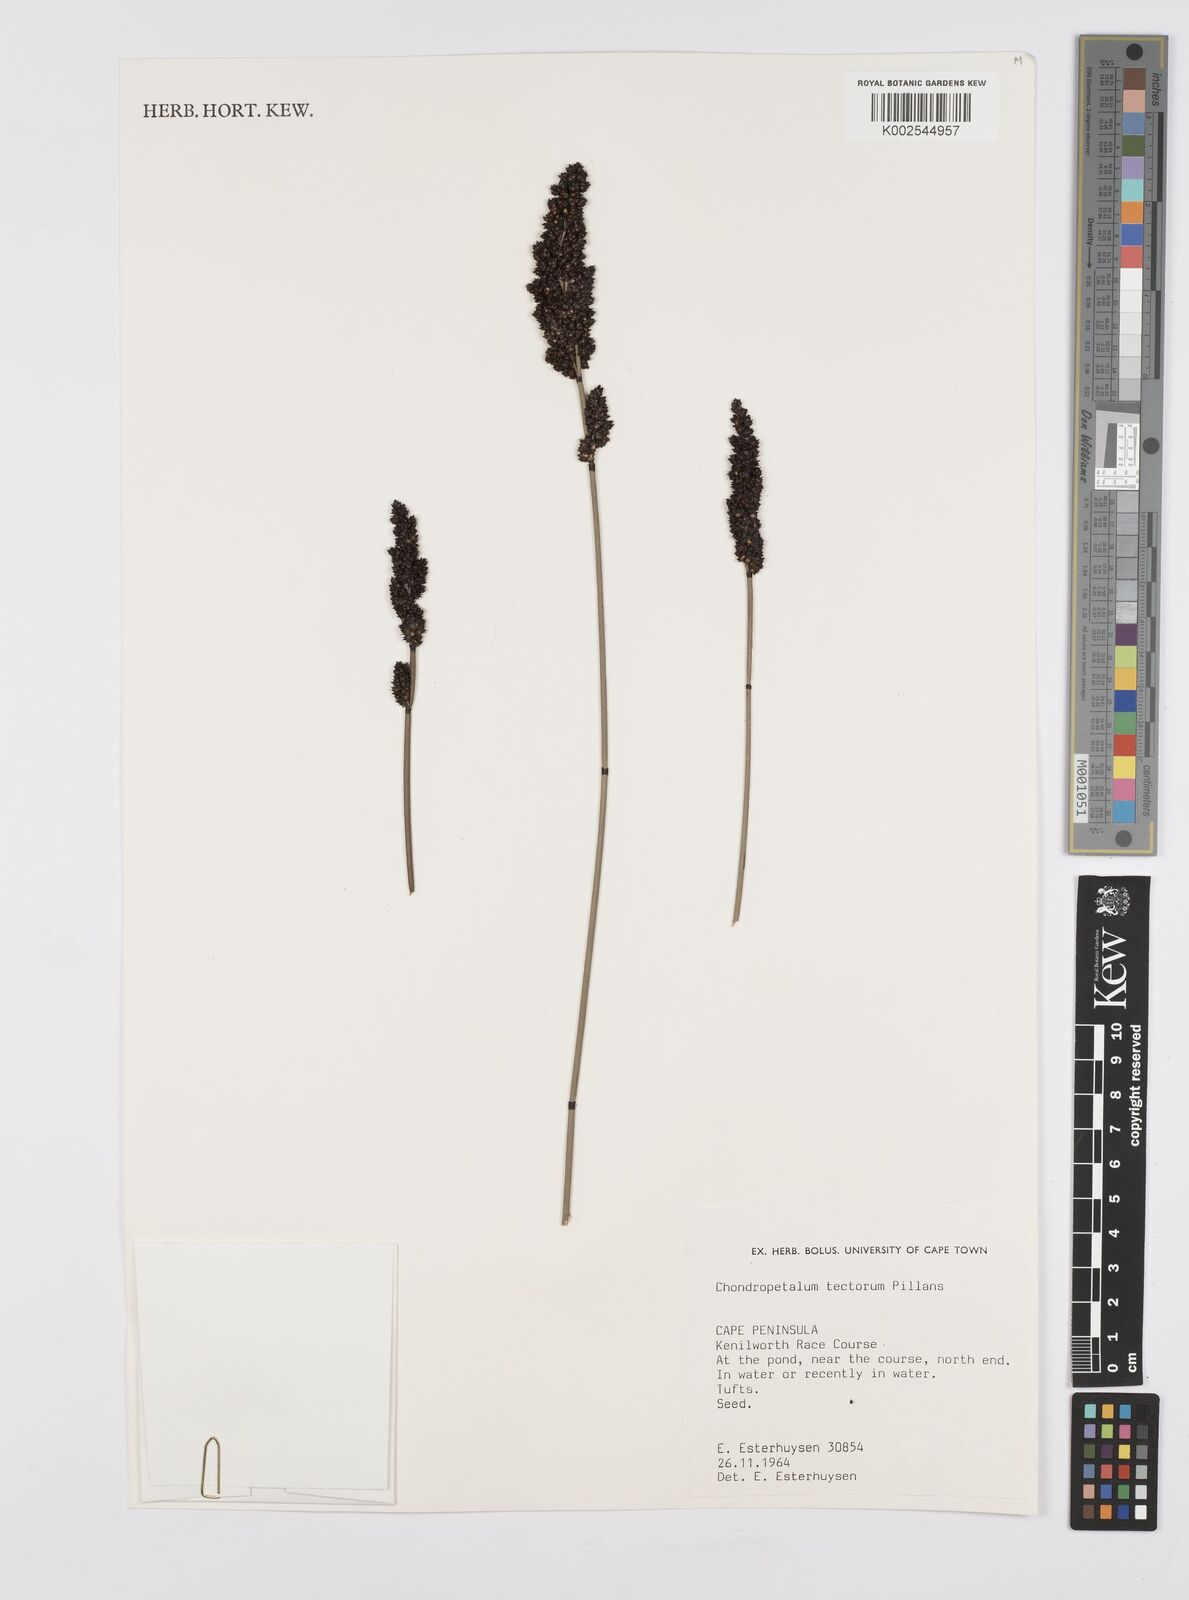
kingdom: Plantae
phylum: Tracheophyta
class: Liliopsida
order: Poales
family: Restionaceae
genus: Elegia
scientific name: Elegia tectorum
